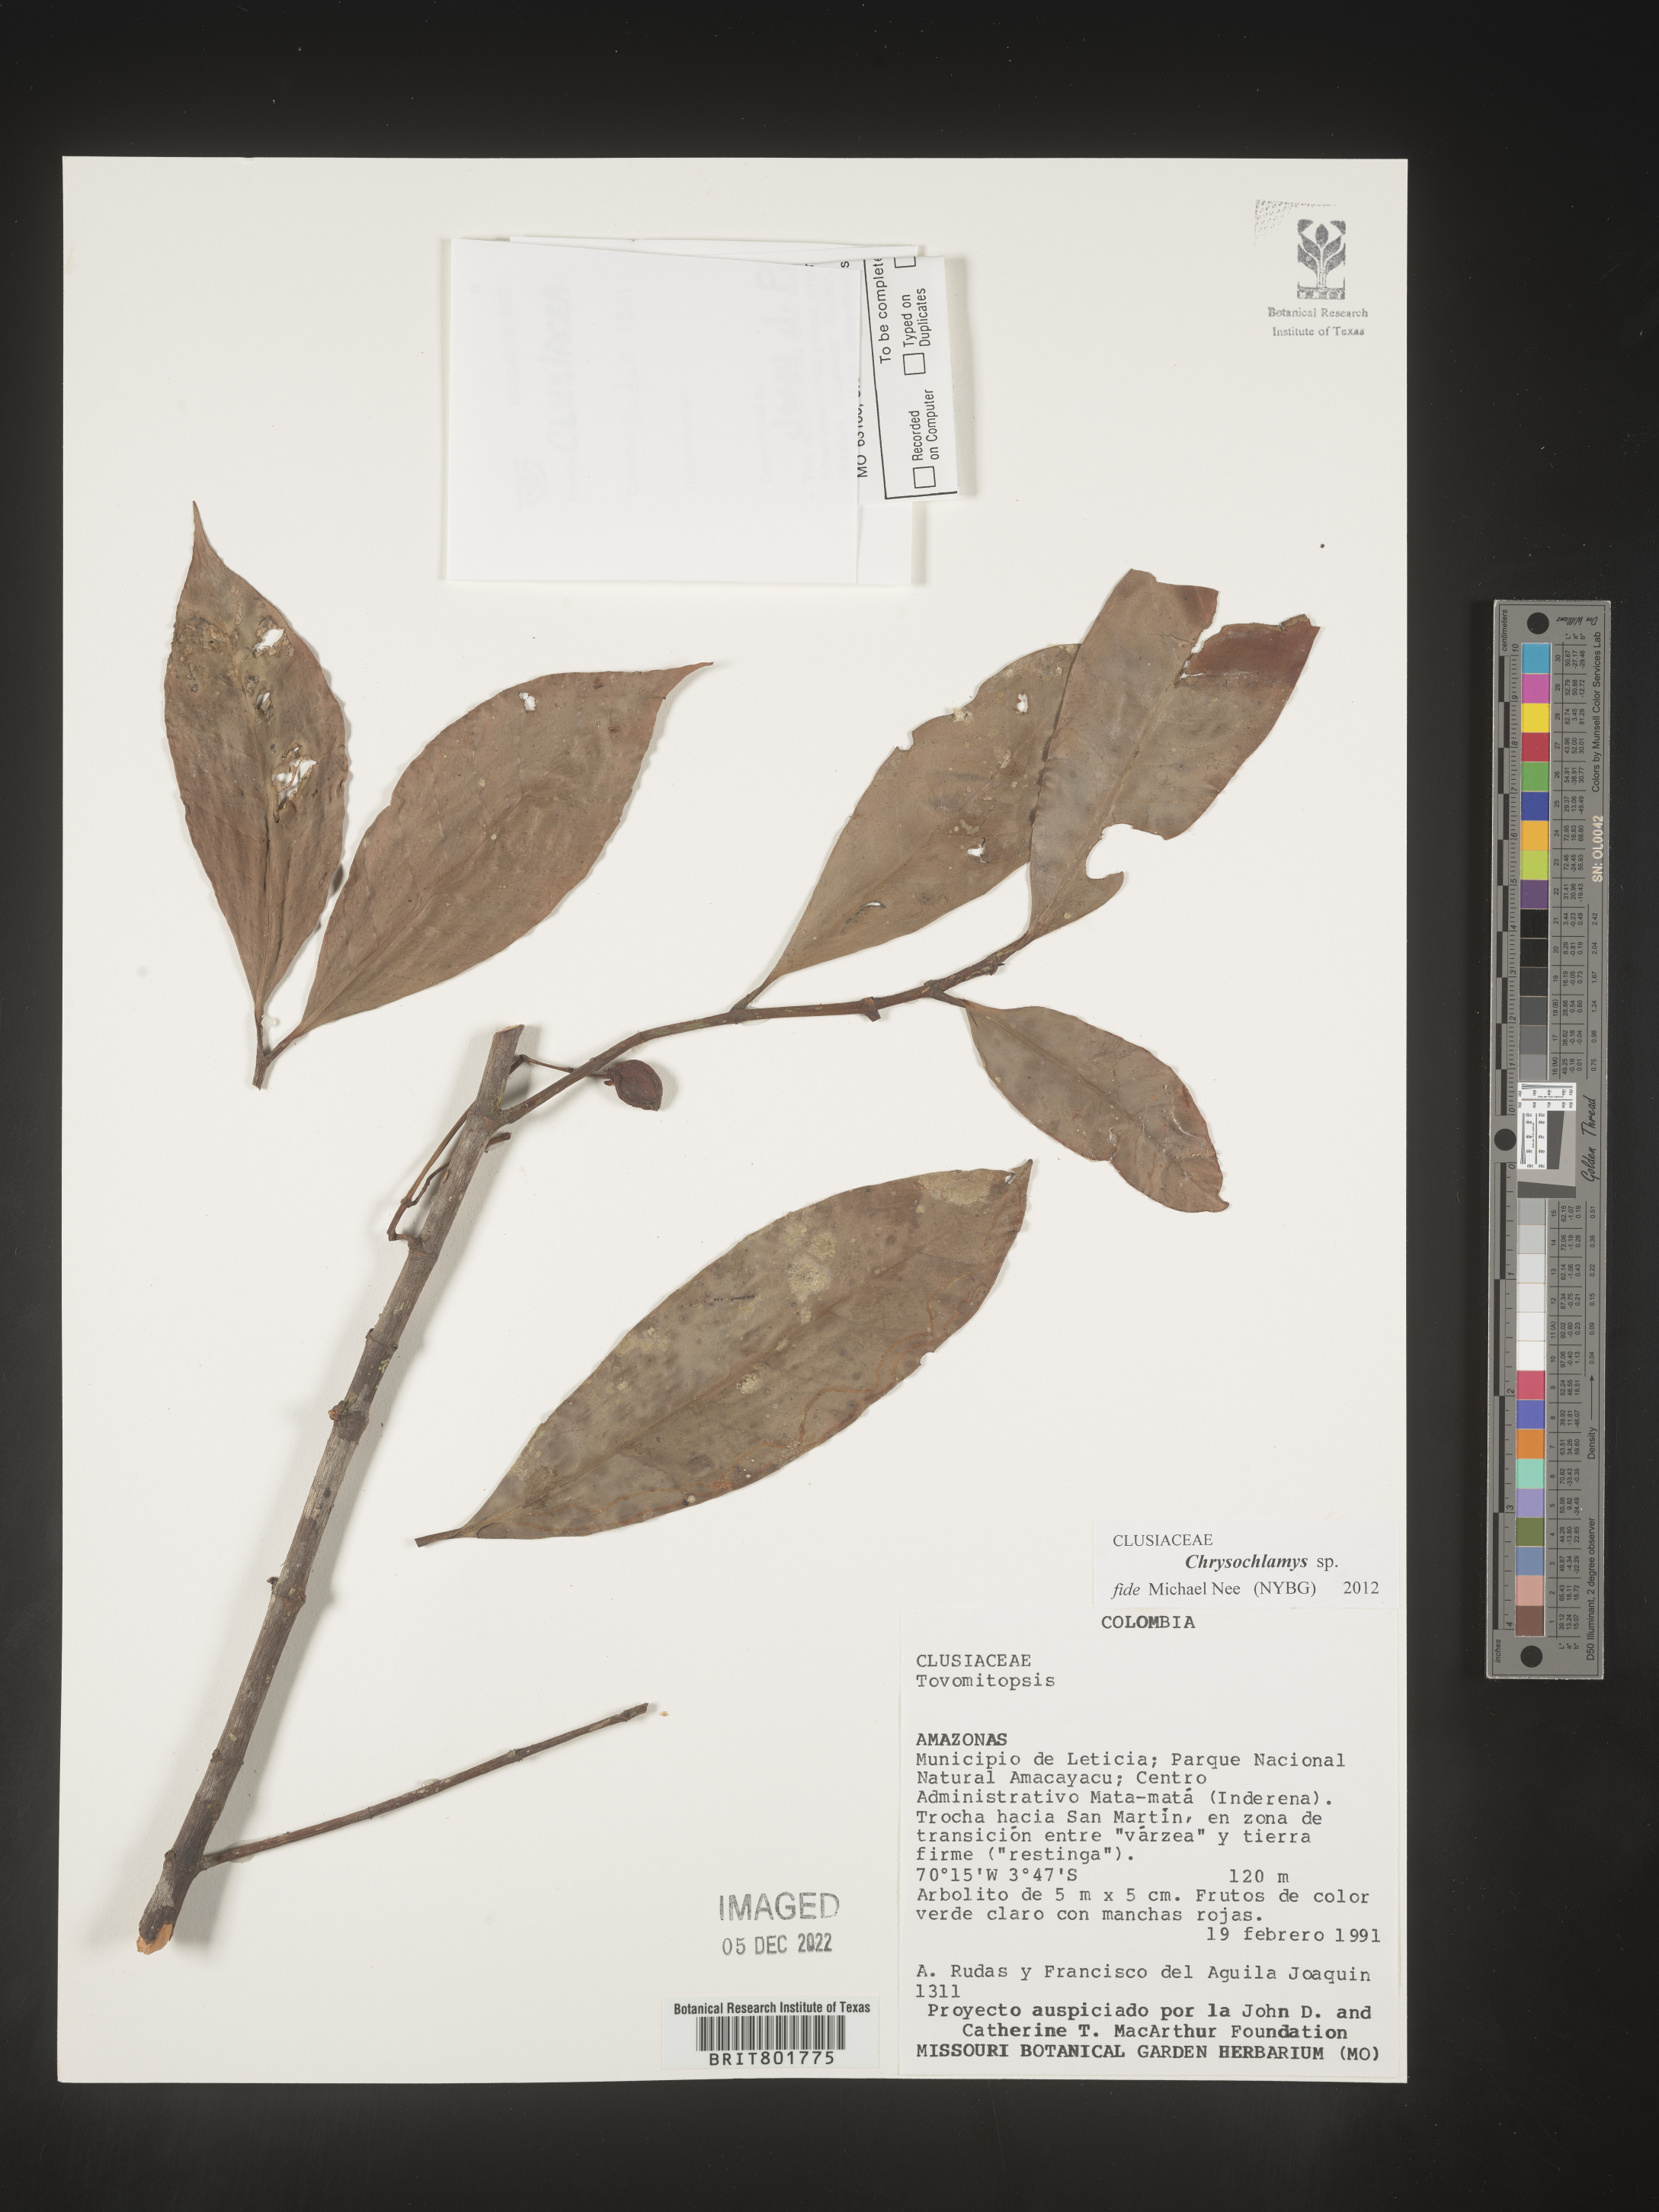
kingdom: Plantae
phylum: Tracheophyta
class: Magnoliopsida
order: Malpighiales
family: Clusiaceae
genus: Chrysochlamys
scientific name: Chrysochlamys
